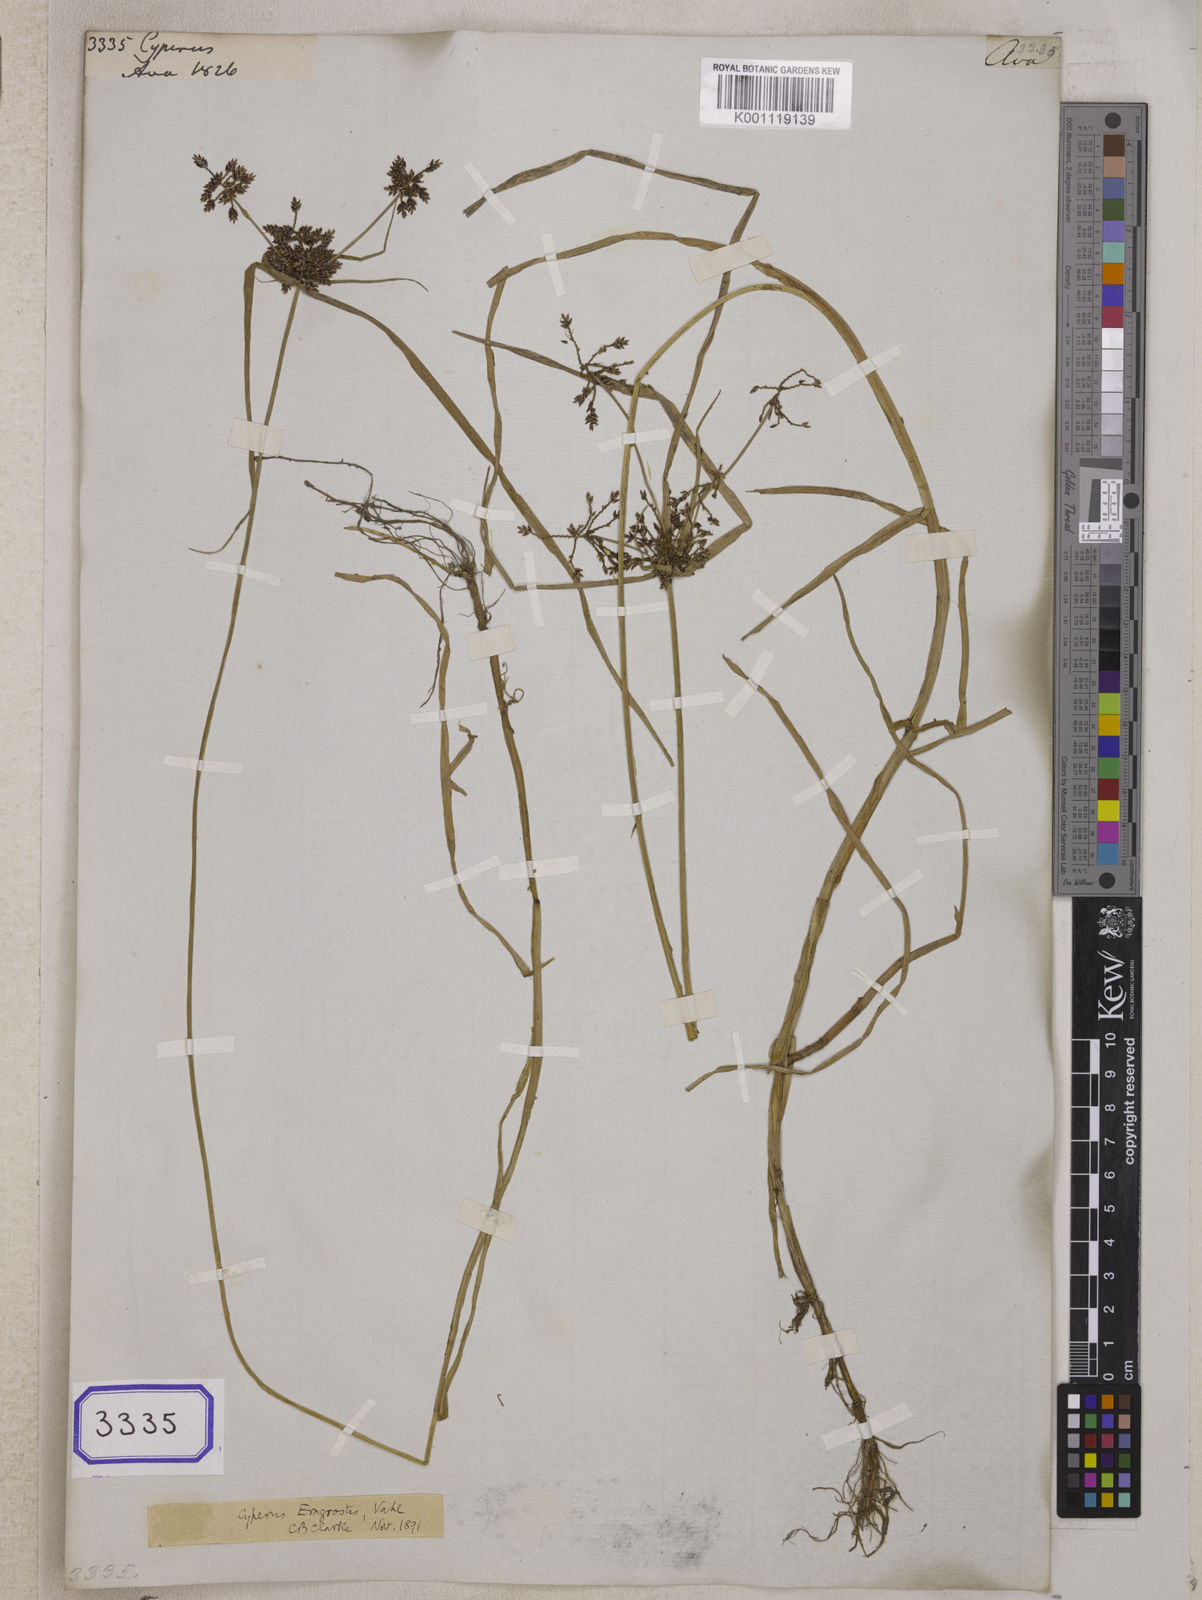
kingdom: Plantae
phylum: Tracheophyta
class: Liliopsida
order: Poales
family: Cyperaceae
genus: Cyperus
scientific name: Cyperus
